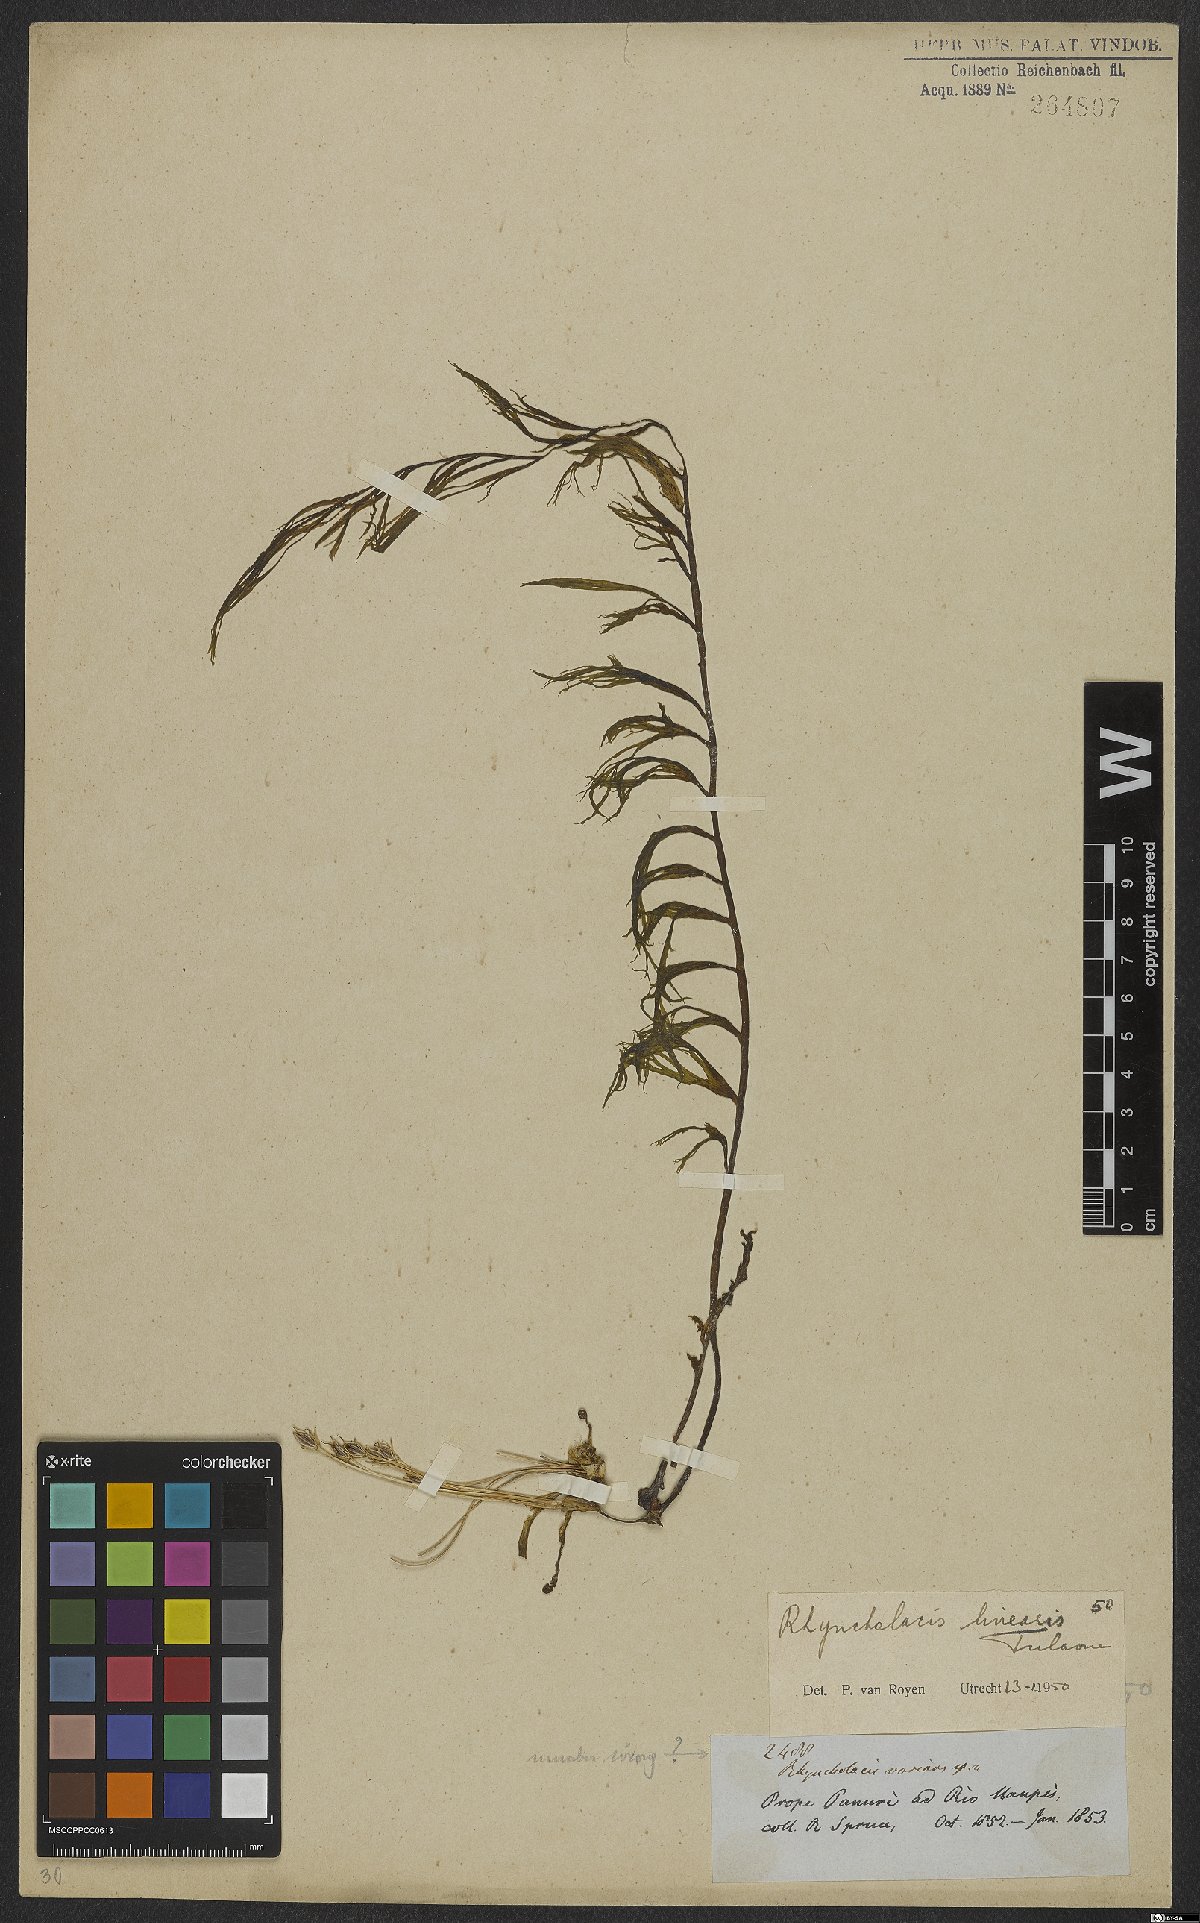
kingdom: Plantae
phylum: Tracheophyta
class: Magnoliopsida
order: Malpighiales
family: Podostemaceae
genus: Rhyncholacis
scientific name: Rhyncholacis linearis
